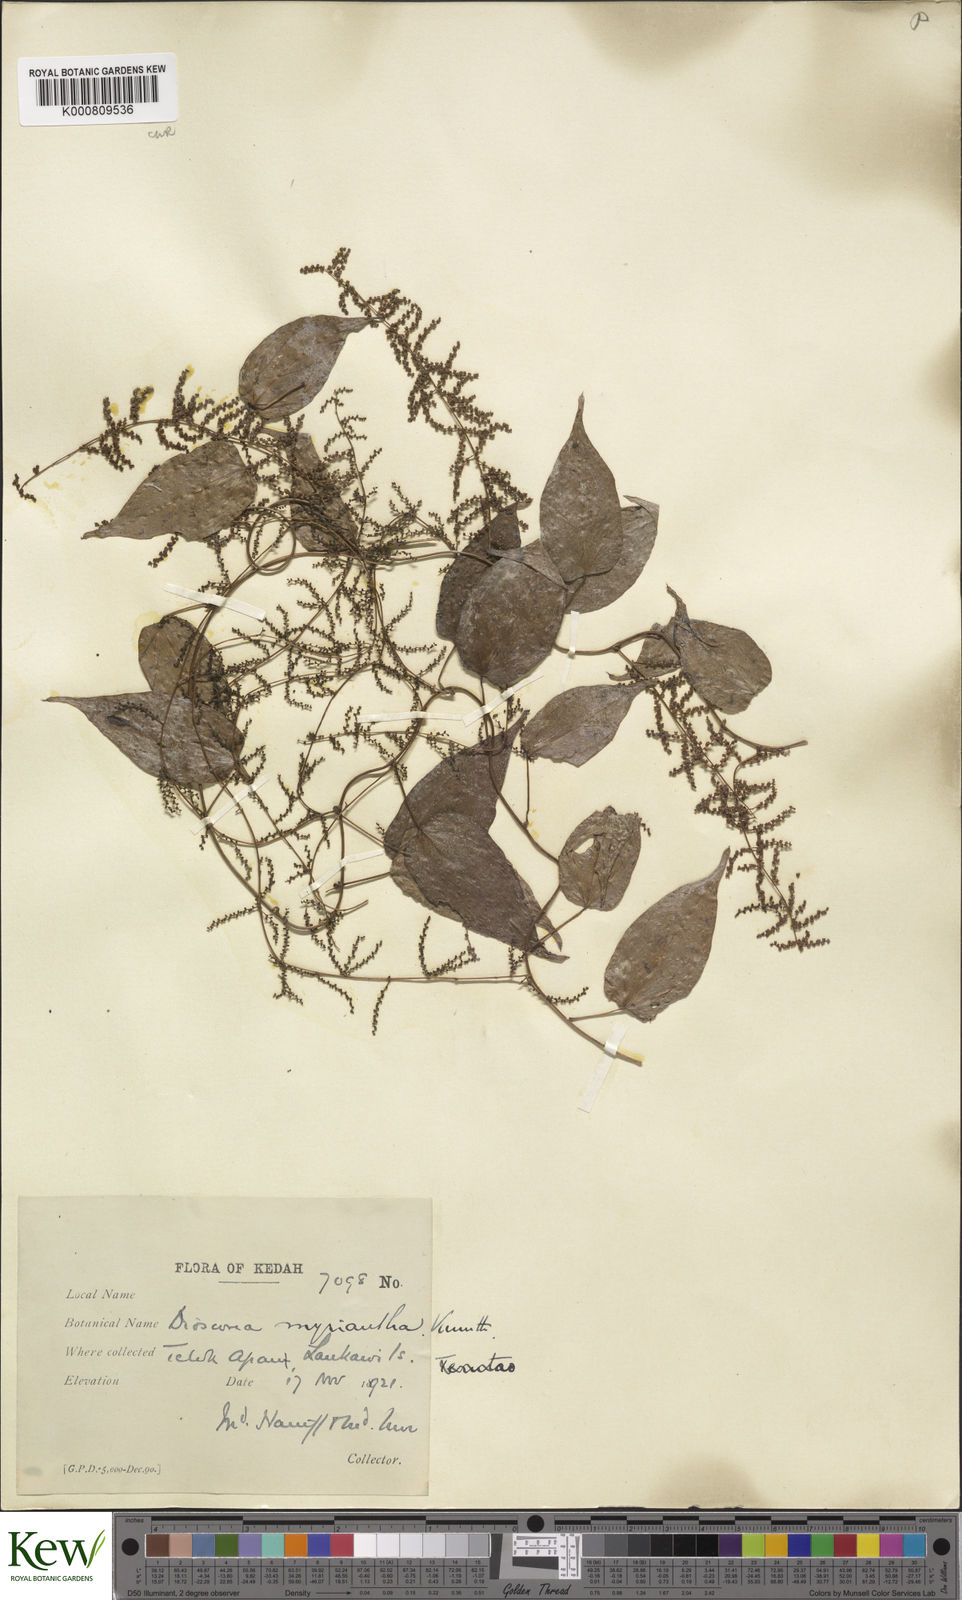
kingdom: Plantae
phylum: Tracheophyta
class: Liliopsida
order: Dioscoreales
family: Dioscoreaceae
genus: Dioscorea
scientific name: Dioscorea filiformis
